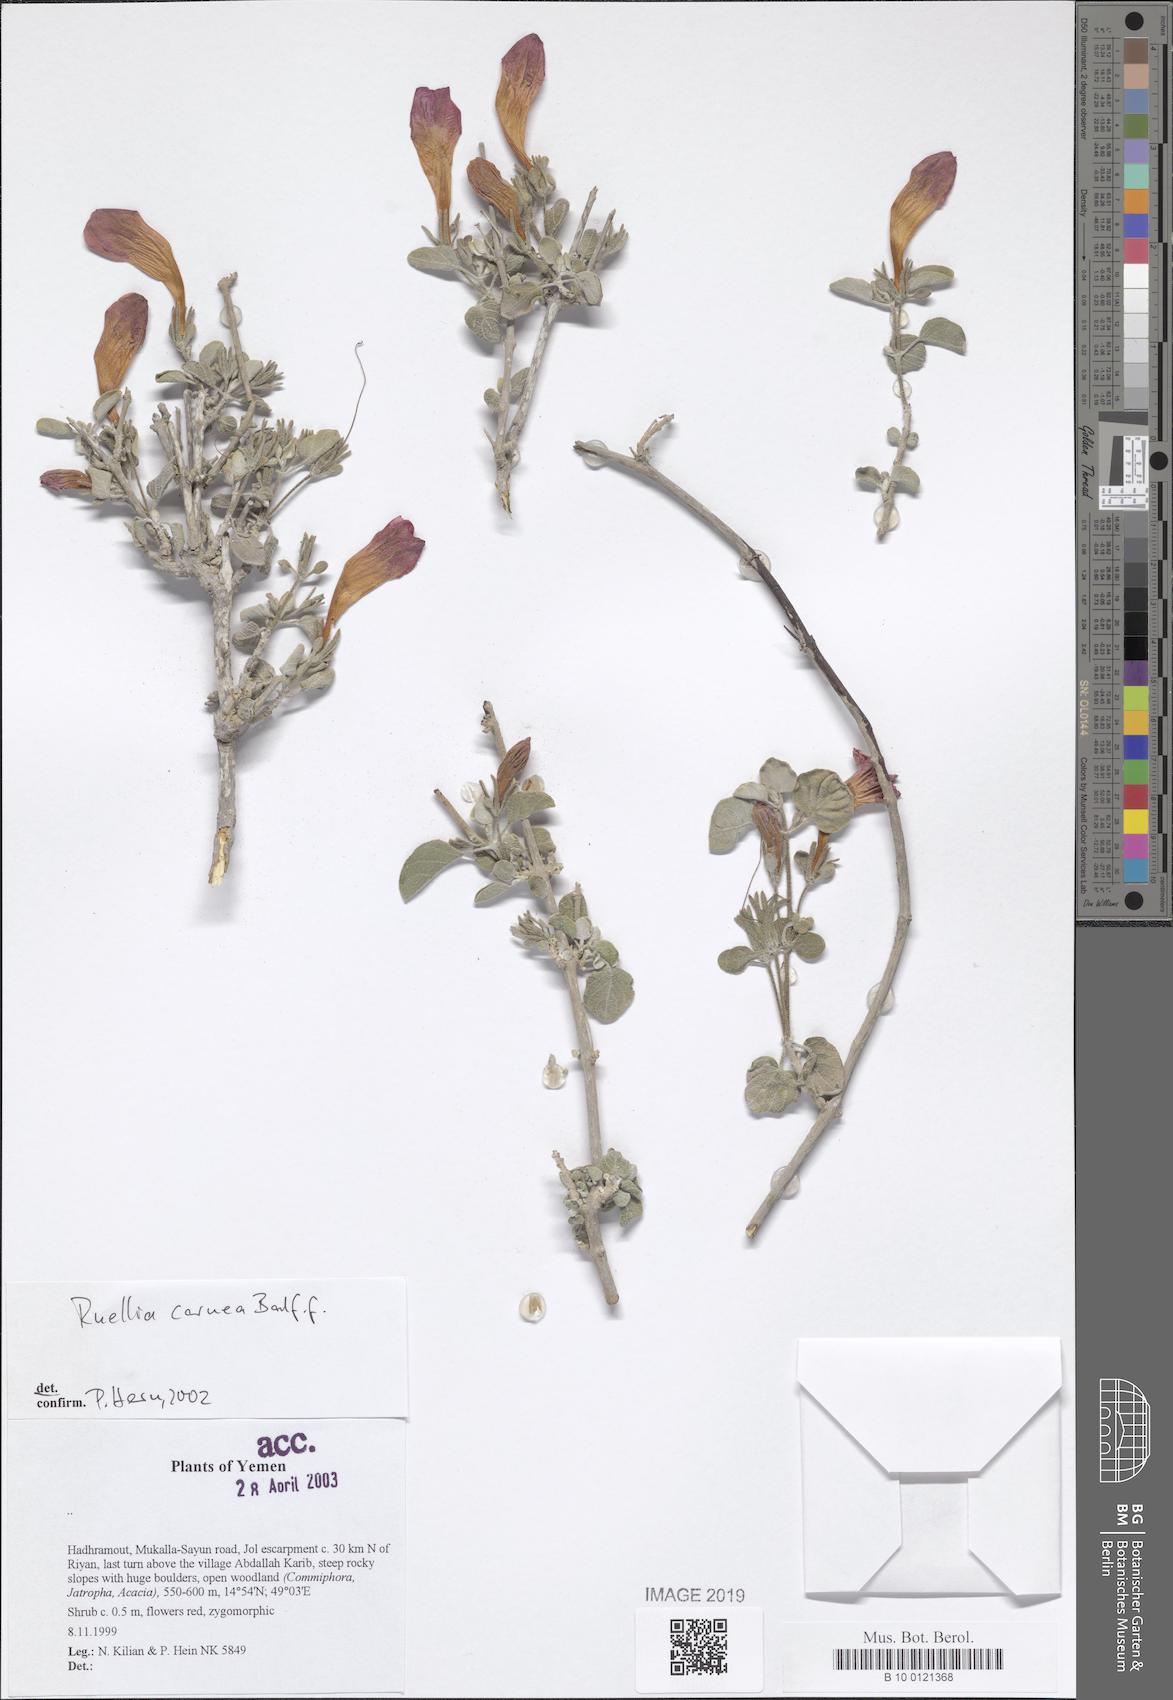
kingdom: Plantae
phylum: Tracheophyta
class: Magnoliopsida
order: Lamiales
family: Acanthaceae
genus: Ruellia
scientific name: Ruellia carnea
